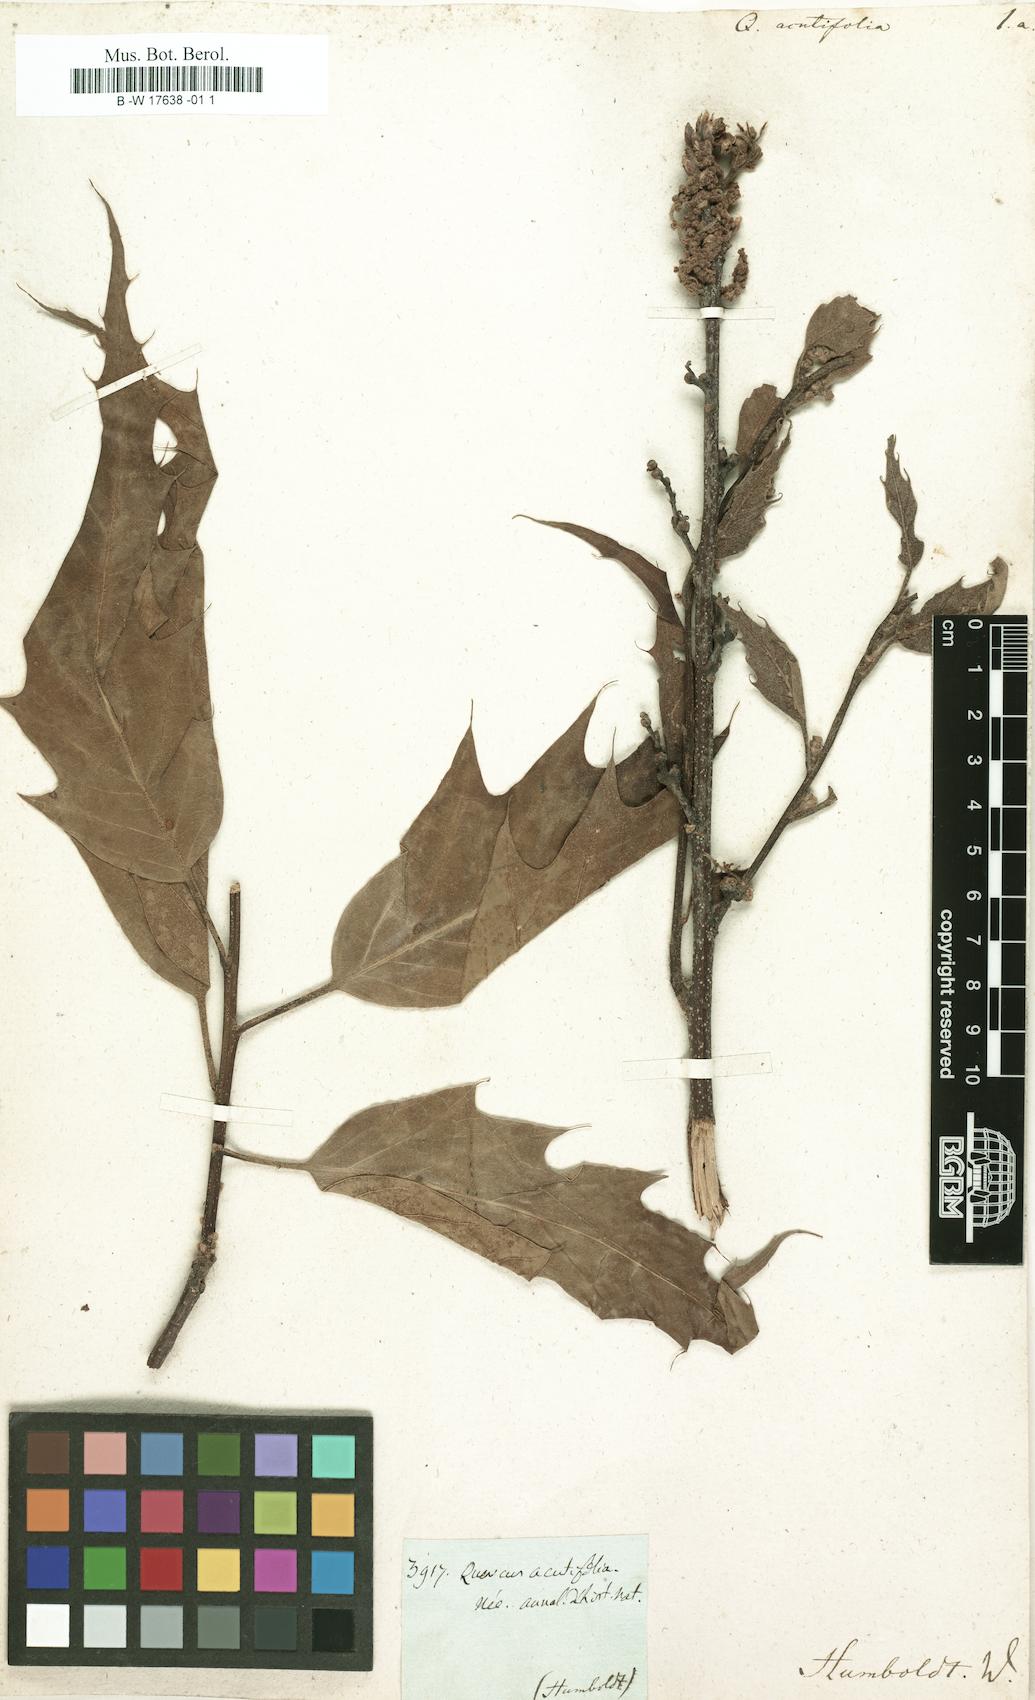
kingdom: Plantae
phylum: Tracheophyta
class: Magnoliopsida
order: Fagales
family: Fagaceae
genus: Quercus
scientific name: Quercus acutifolia
